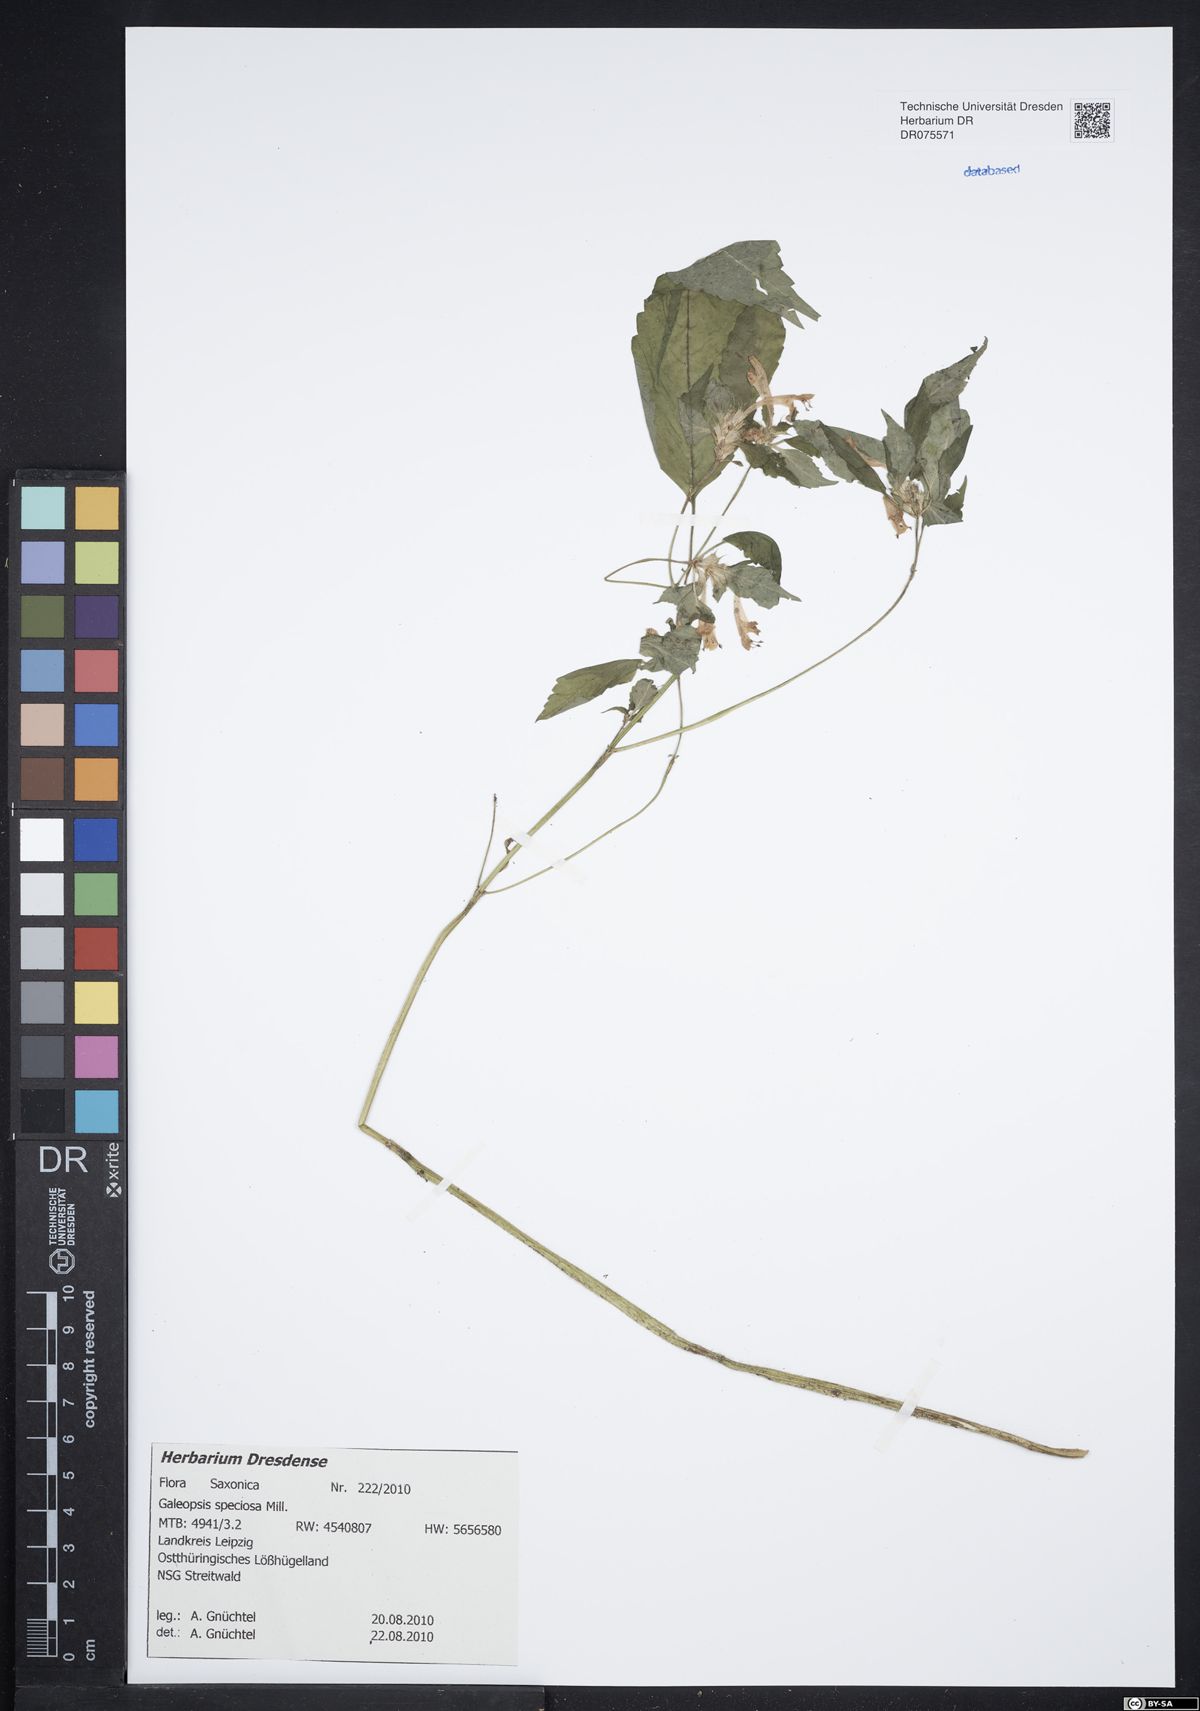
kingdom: Plantae
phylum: Tracheophyta
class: Magnoliopsida
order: Lamiales
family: Lamiaceae
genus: Galeopsis
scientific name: Galeopsis speciosa
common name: Large-flowered hemp-nettle
